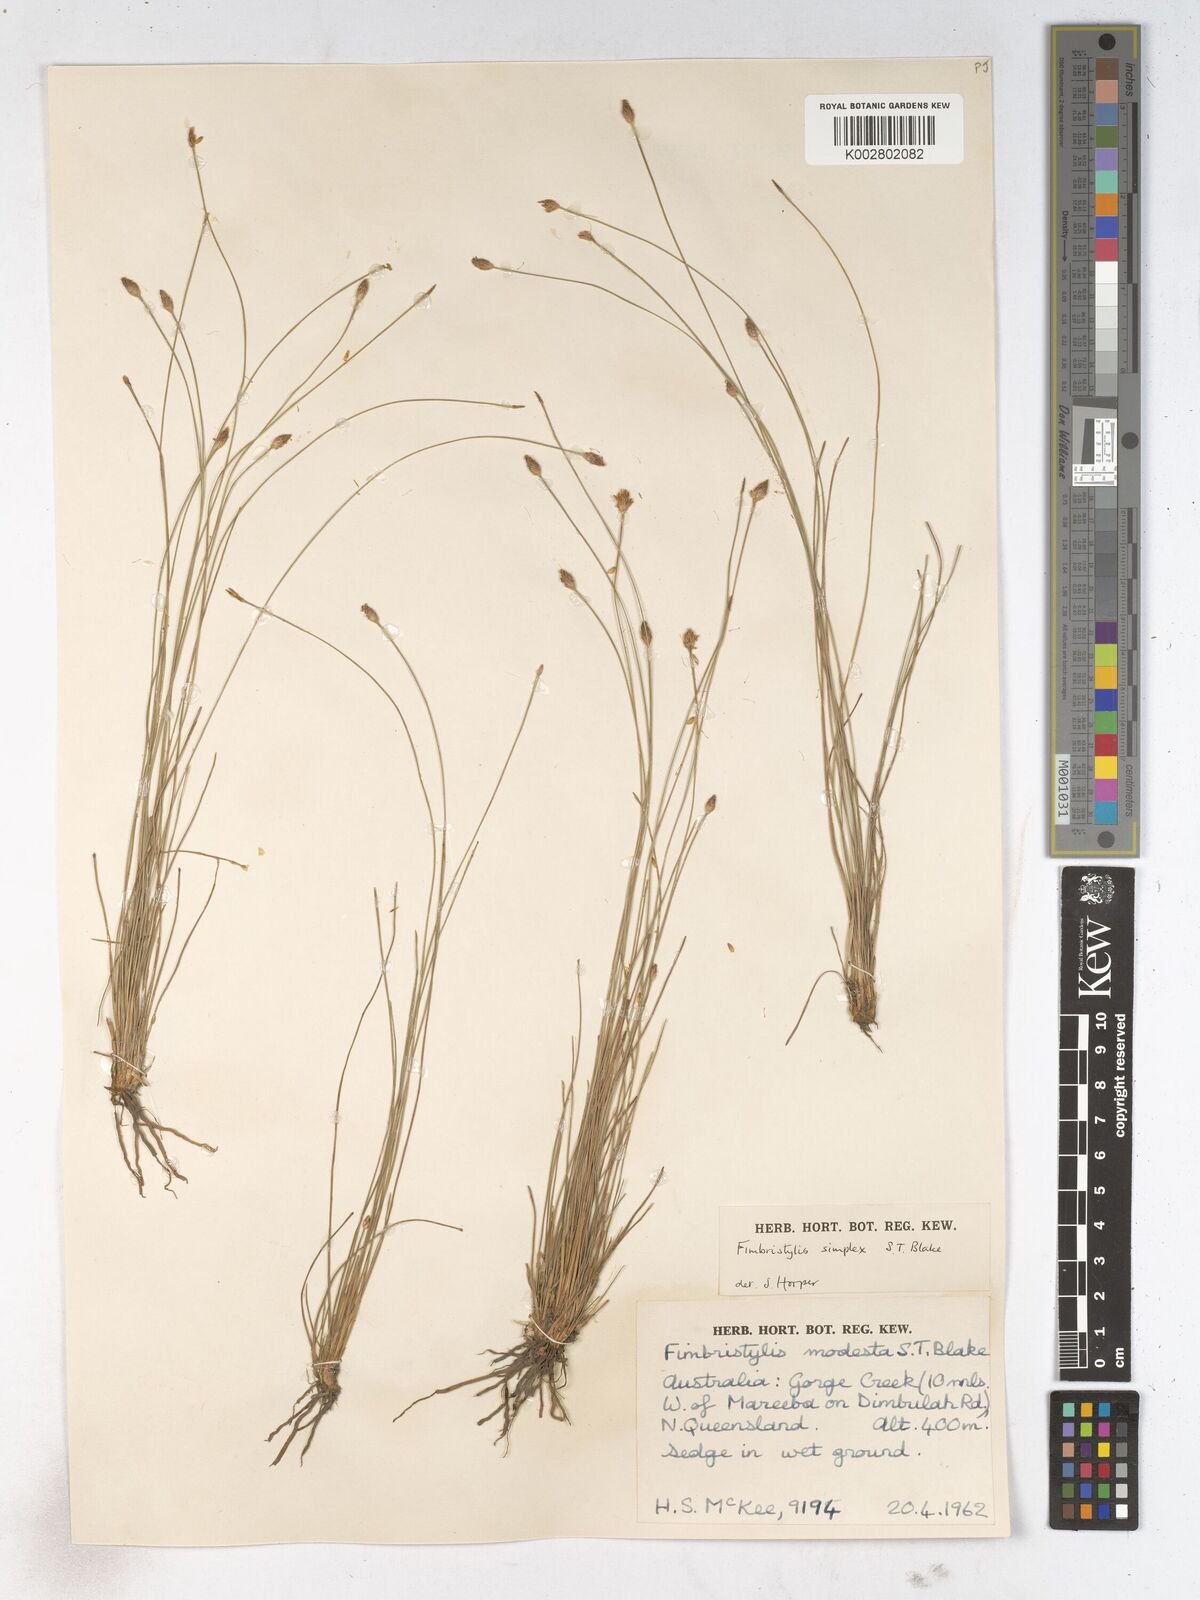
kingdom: Plantae
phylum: Tracheophyta
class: Liliopsida
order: Poales
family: Cyperaceae
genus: Fimbristylis
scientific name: Fimbristylis simplex
